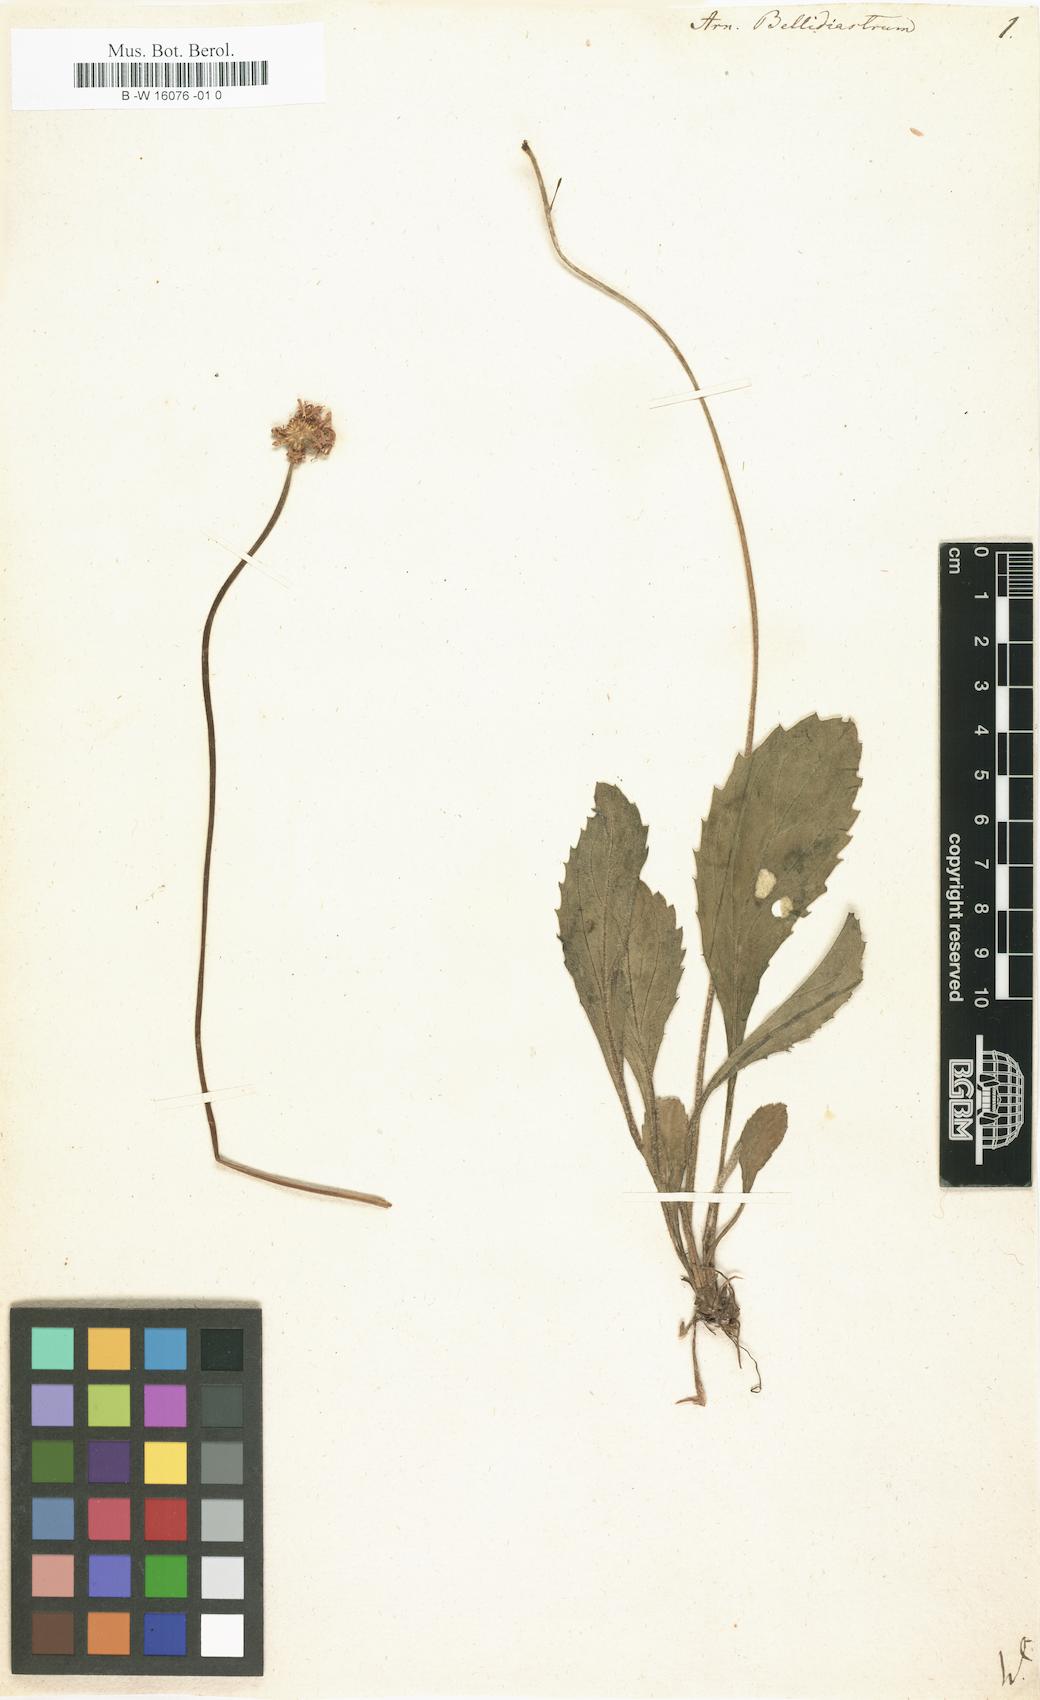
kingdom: Plantae
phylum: Tracheophyta
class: Magnoliopsida
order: Asterales
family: Asteraceae
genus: Bellidiastrum
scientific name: Bellidiastrum michelii
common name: Daisy-star aster
